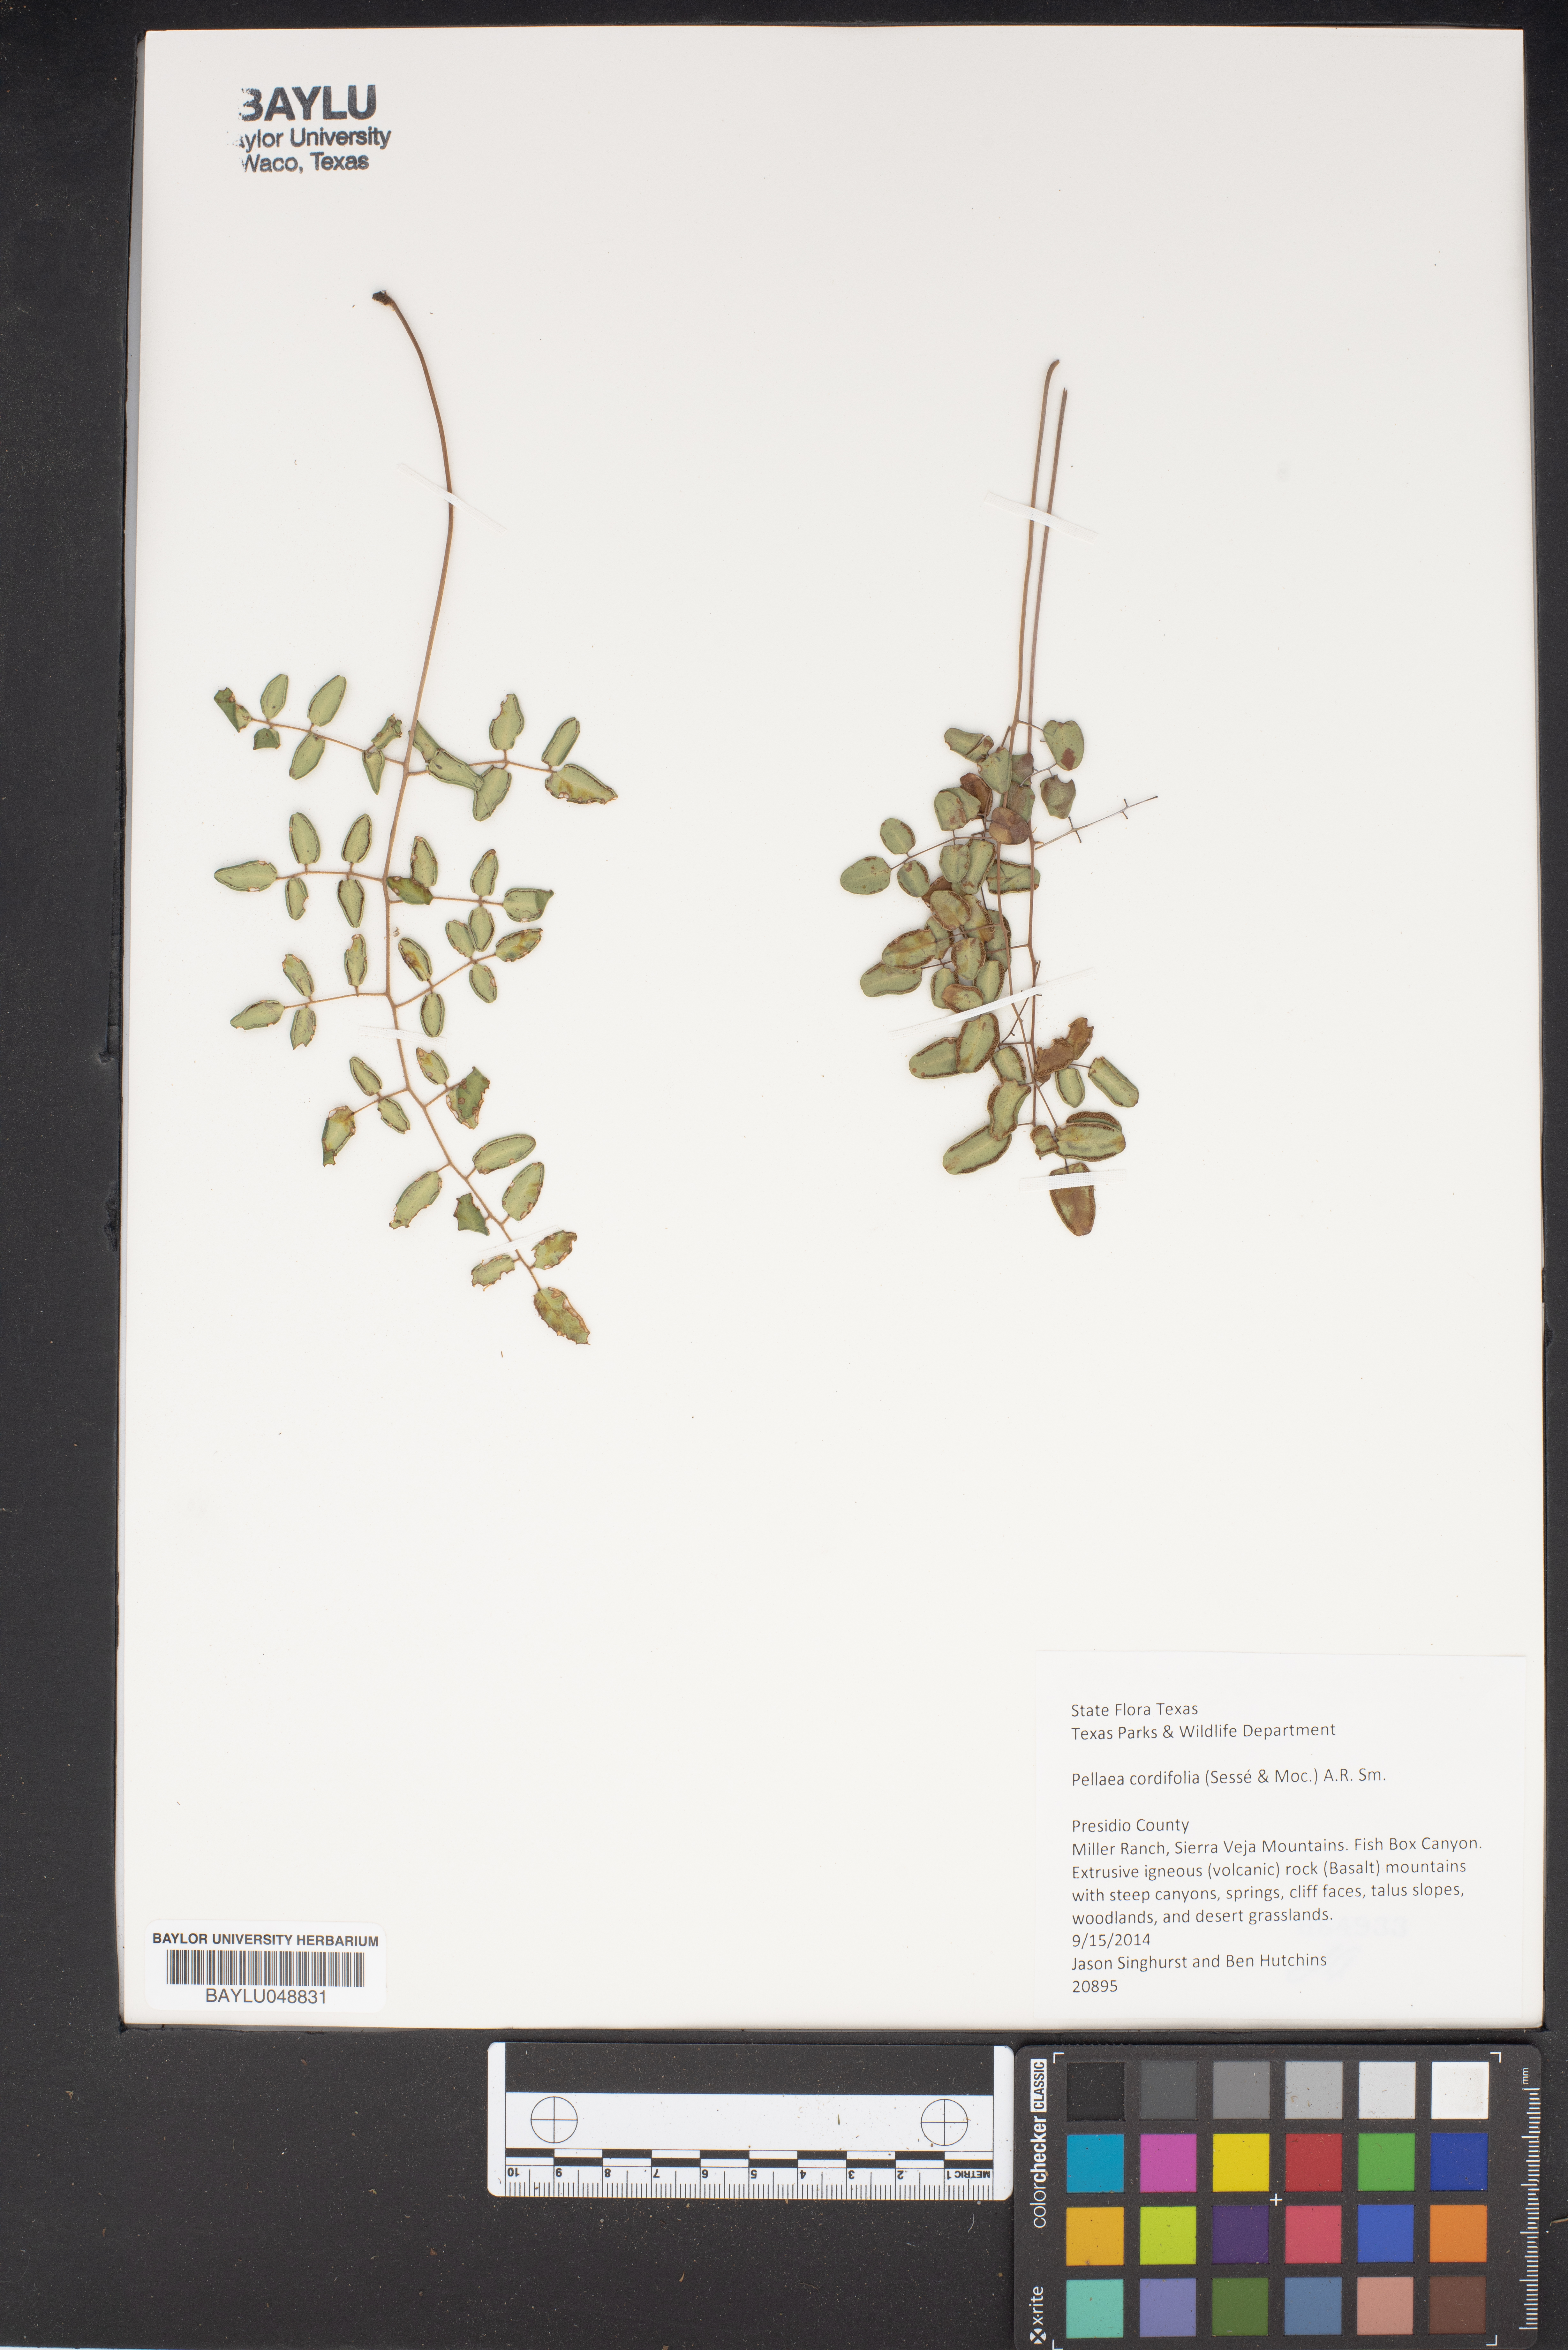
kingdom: Plantae
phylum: Tracheophyta
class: Polypodiopsida
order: Polypodiales
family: Pteridaceae
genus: Pellaea
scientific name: Pellaea cordifolia
